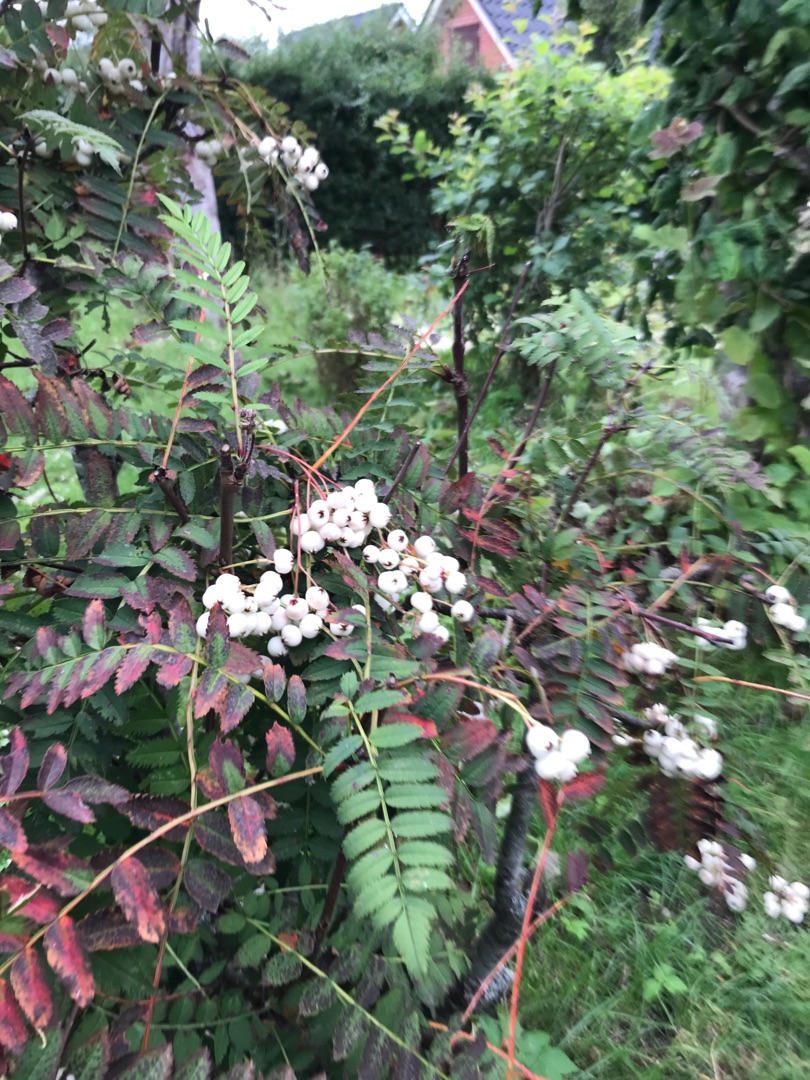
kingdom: Plantae
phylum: Tracheophyta
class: Magnoliopsida
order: Rosales
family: Rosaceae
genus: Sorbus
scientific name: Sorbus aucuparia
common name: Almindelig røn
